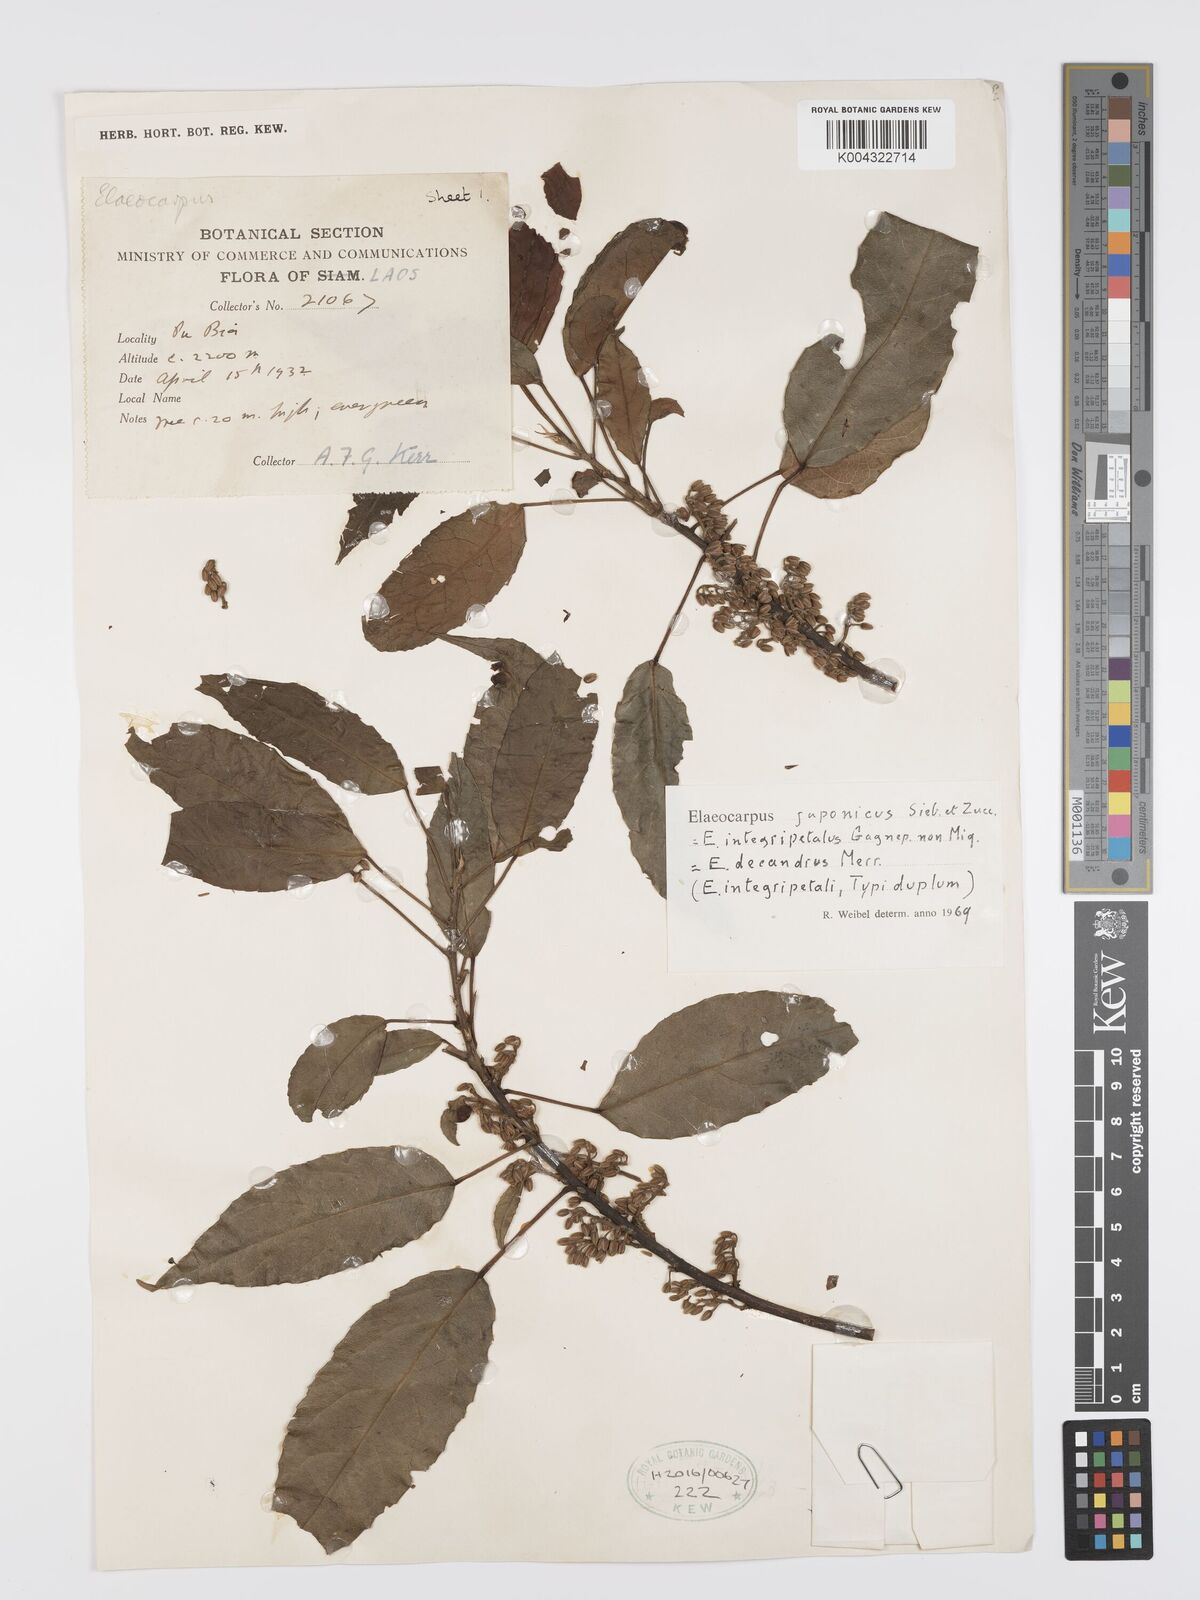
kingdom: Plantae
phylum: Tracheophyta
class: Magnoliopsida
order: Oxalidales
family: Elaeocarpaceae
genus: Elaeocarpus
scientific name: Elaeocarpus
